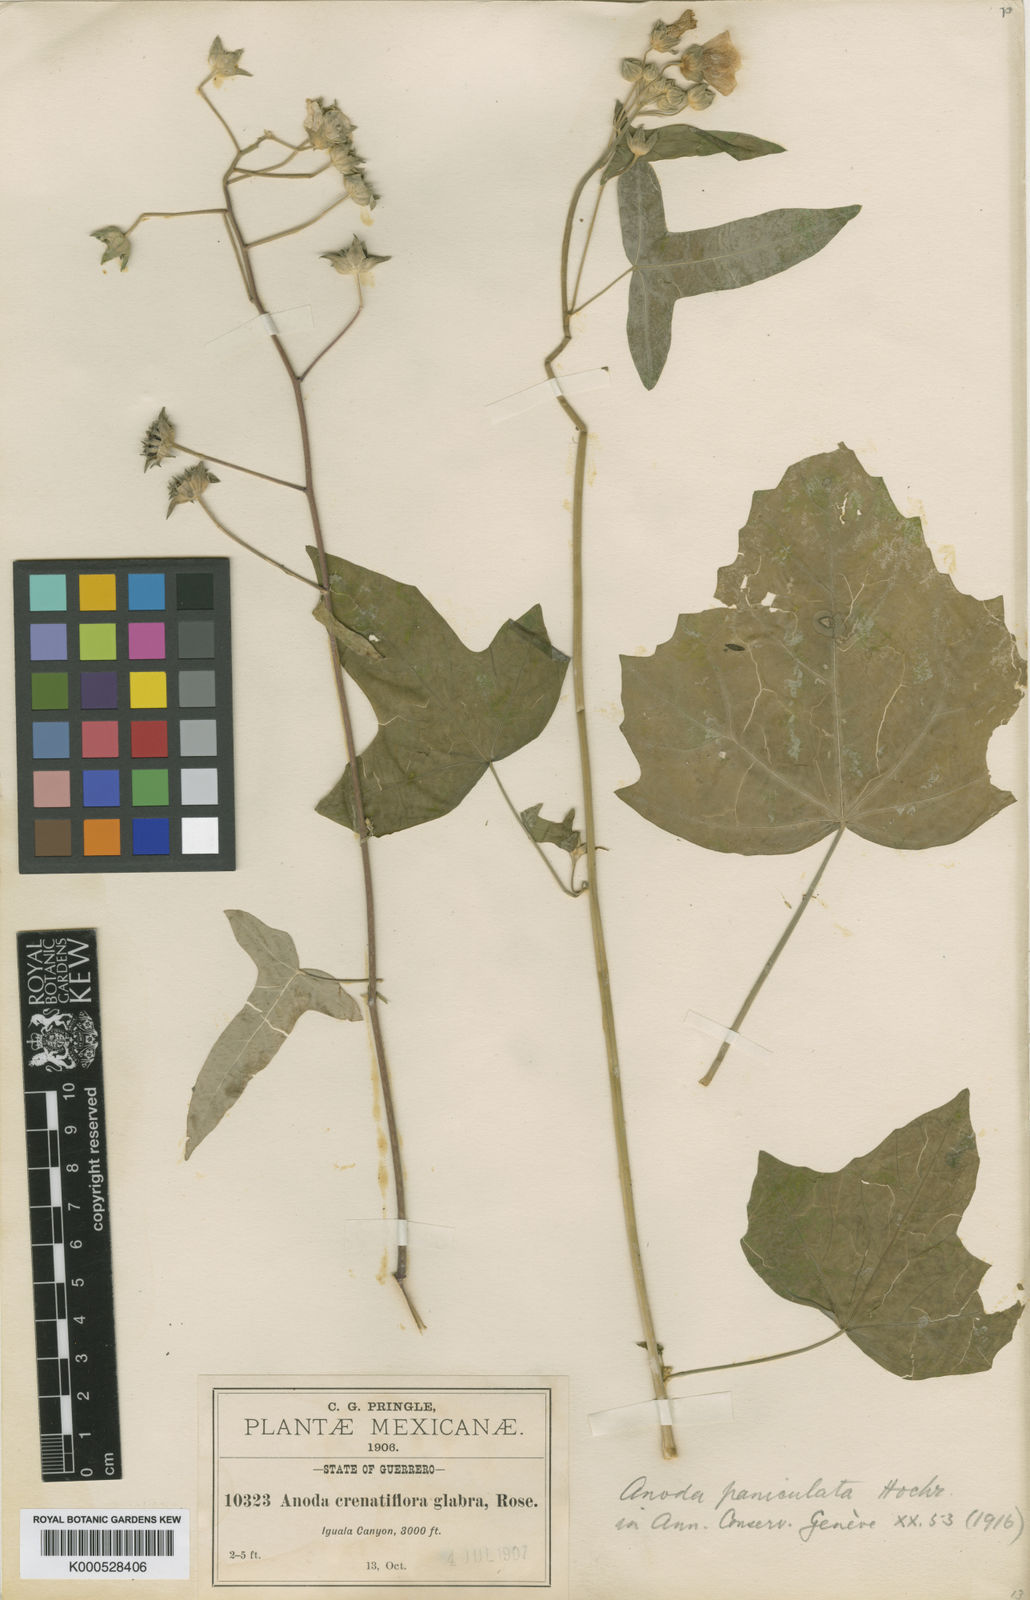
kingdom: Plantae
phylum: Tracheophyta
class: Magnoliopsida
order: Malvales
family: Malvaceae
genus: Anoda
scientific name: Anoda paniculata
